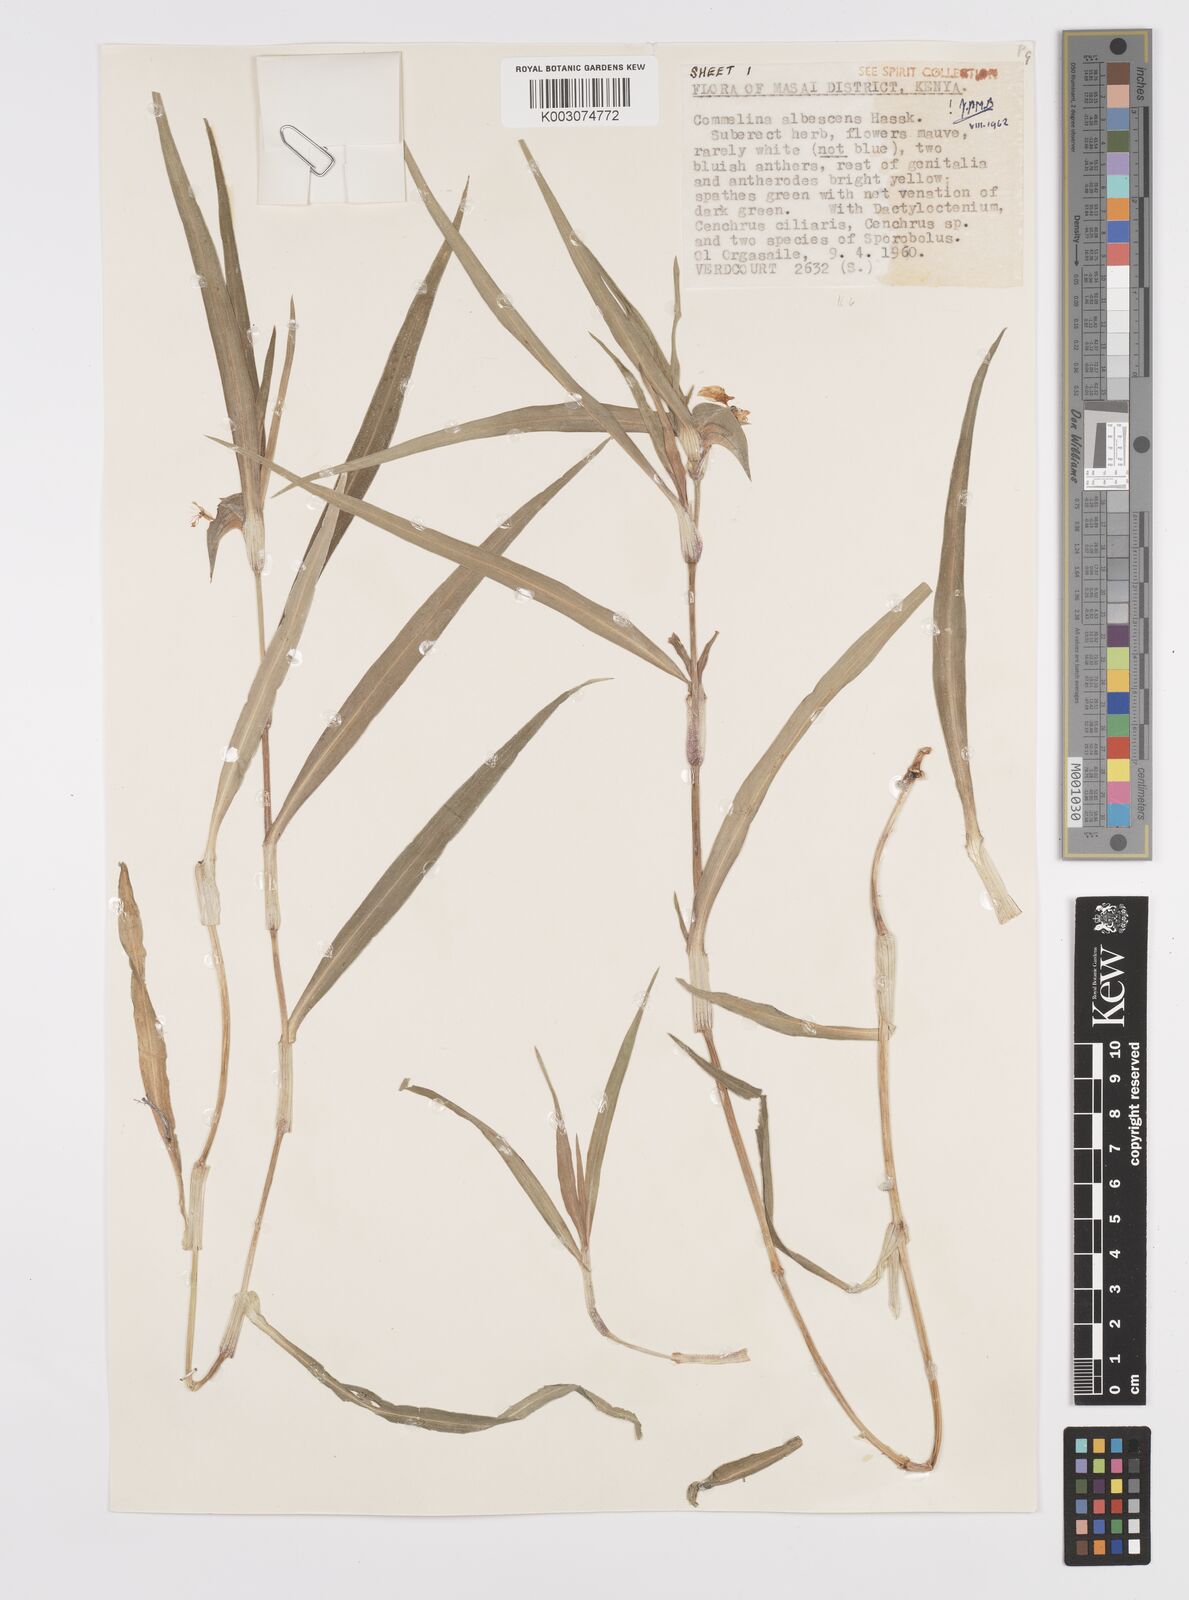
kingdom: Plantae
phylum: Tracheophyta
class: Liliopsida
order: Commelinales
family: Commelinaceae
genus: Commelina
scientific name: Commelina albescens
